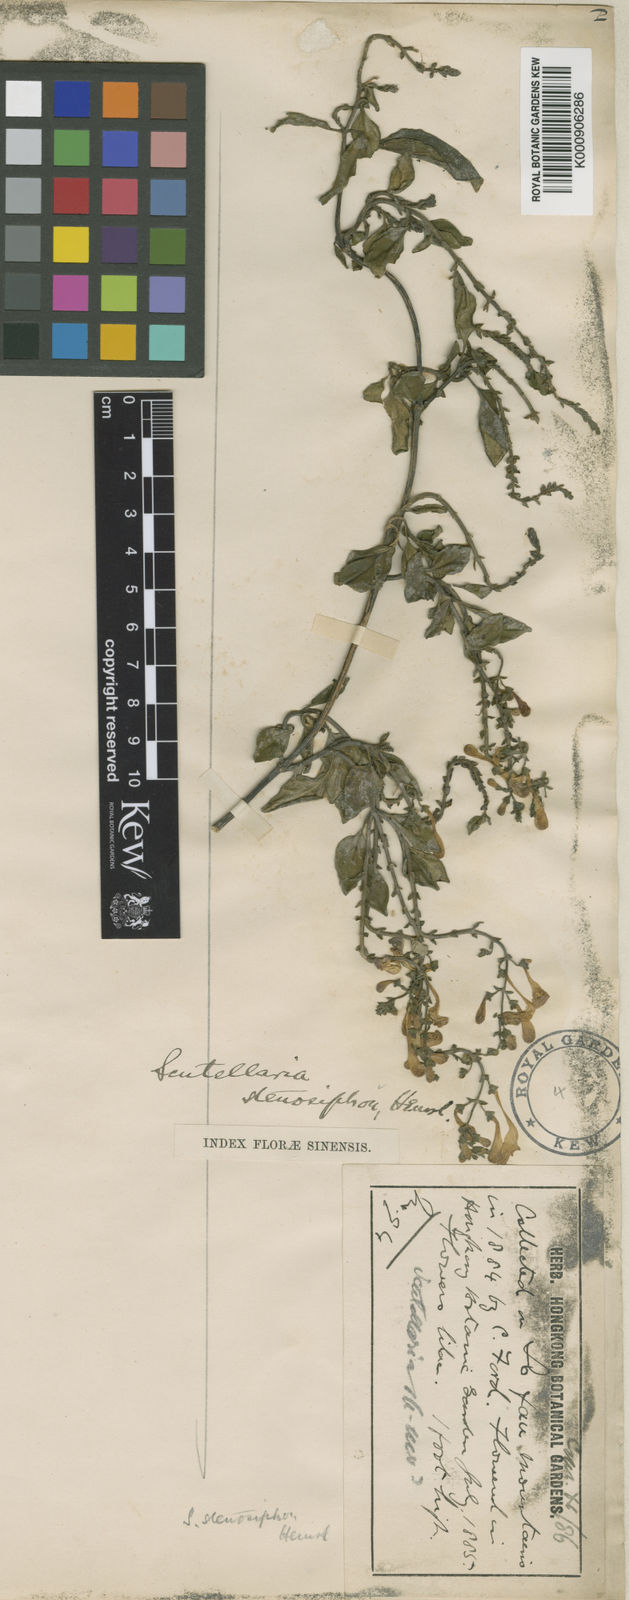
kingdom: Plantae
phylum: Tracheophyta
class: Magnoliopsida
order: Lamiales
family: Lamiaceae
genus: Scutellaria
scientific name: Scutellaria stenosiphon
